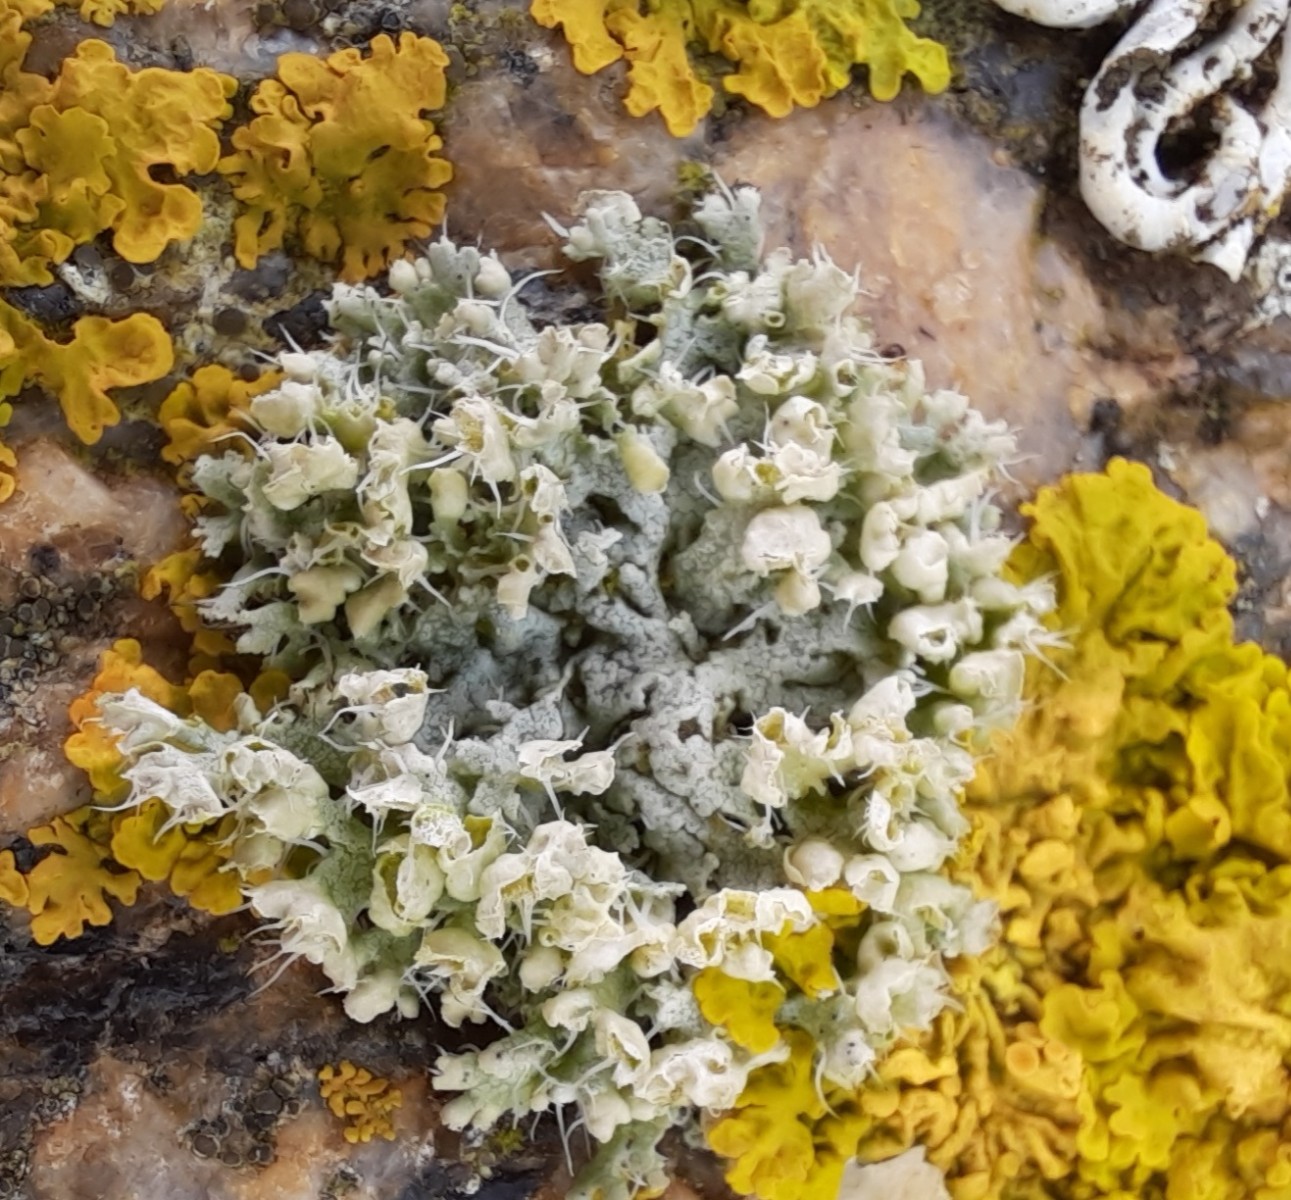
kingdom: Fungi
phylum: Ascomycota
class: Lecanoromycetes
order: Caliciales
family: Physciaceae
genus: Physcia
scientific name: Physcia adscendens
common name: hætte-rosetlav
